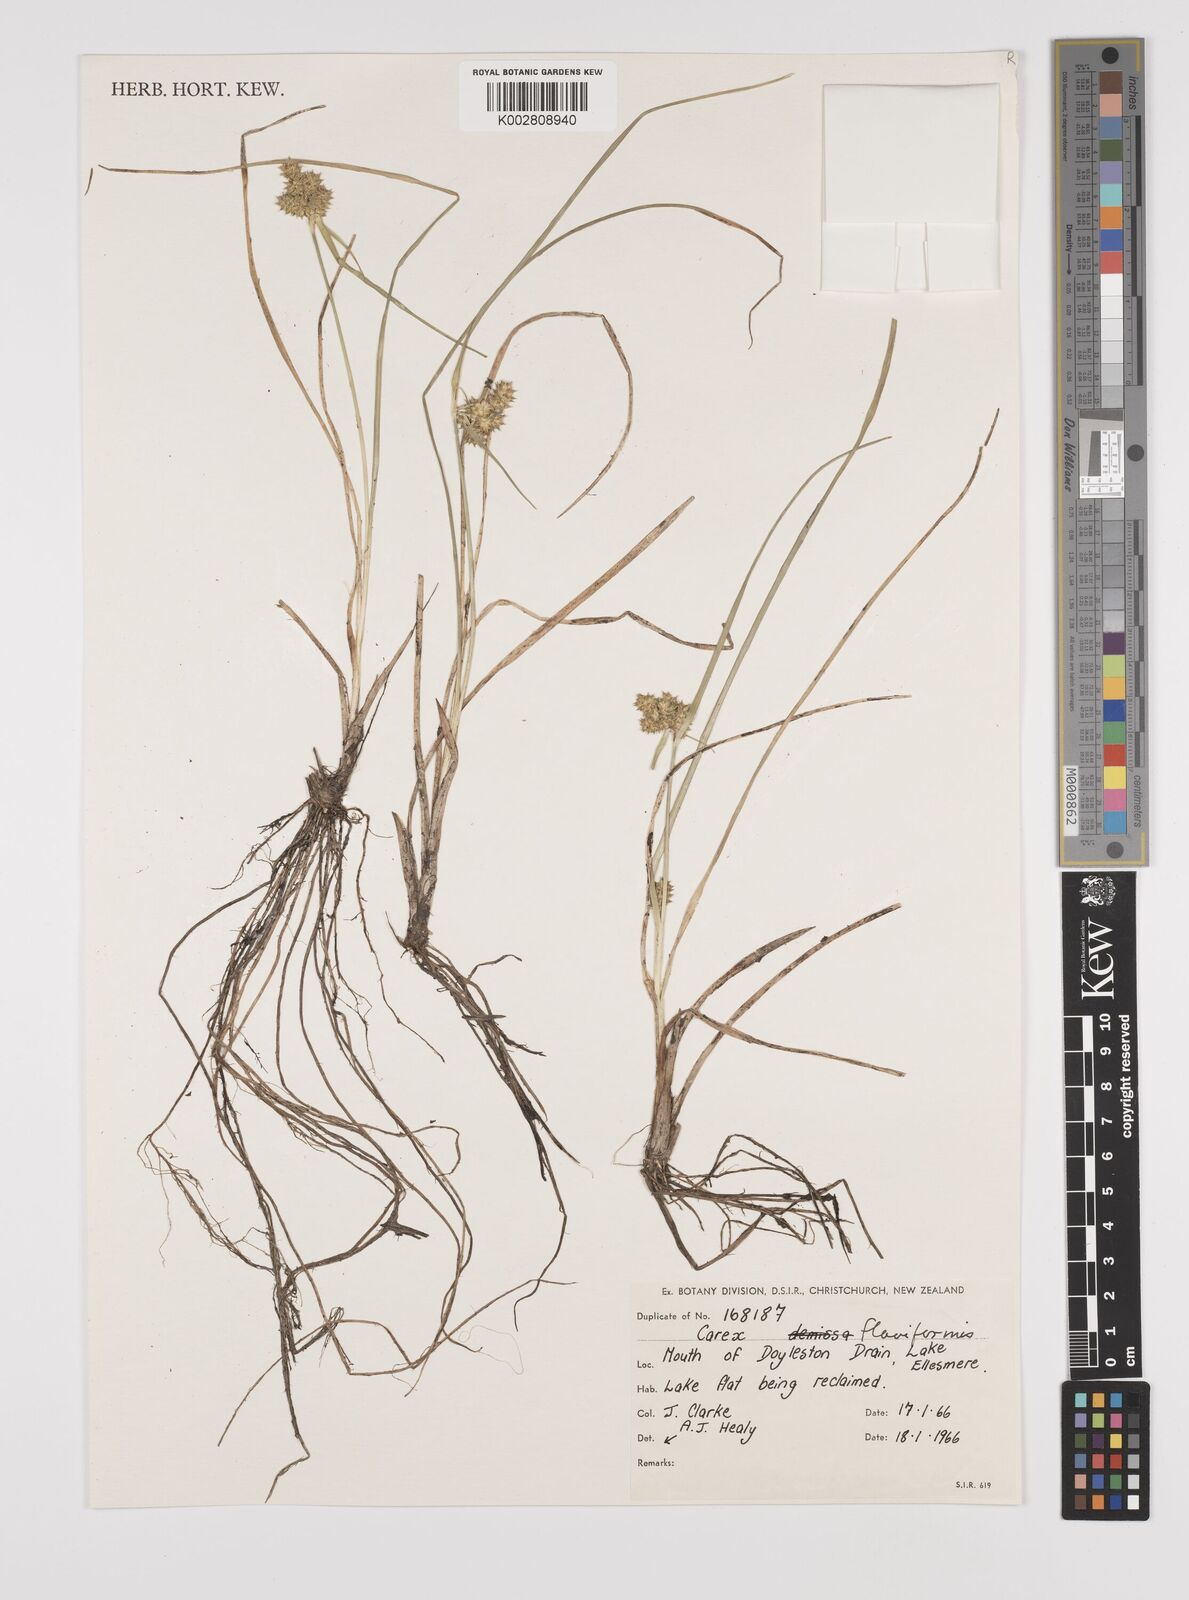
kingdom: Plantae
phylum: Tracheophyta
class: Liliopsida
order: Poales
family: Cyperaceae
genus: Carex
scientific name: Carex flaviformis
